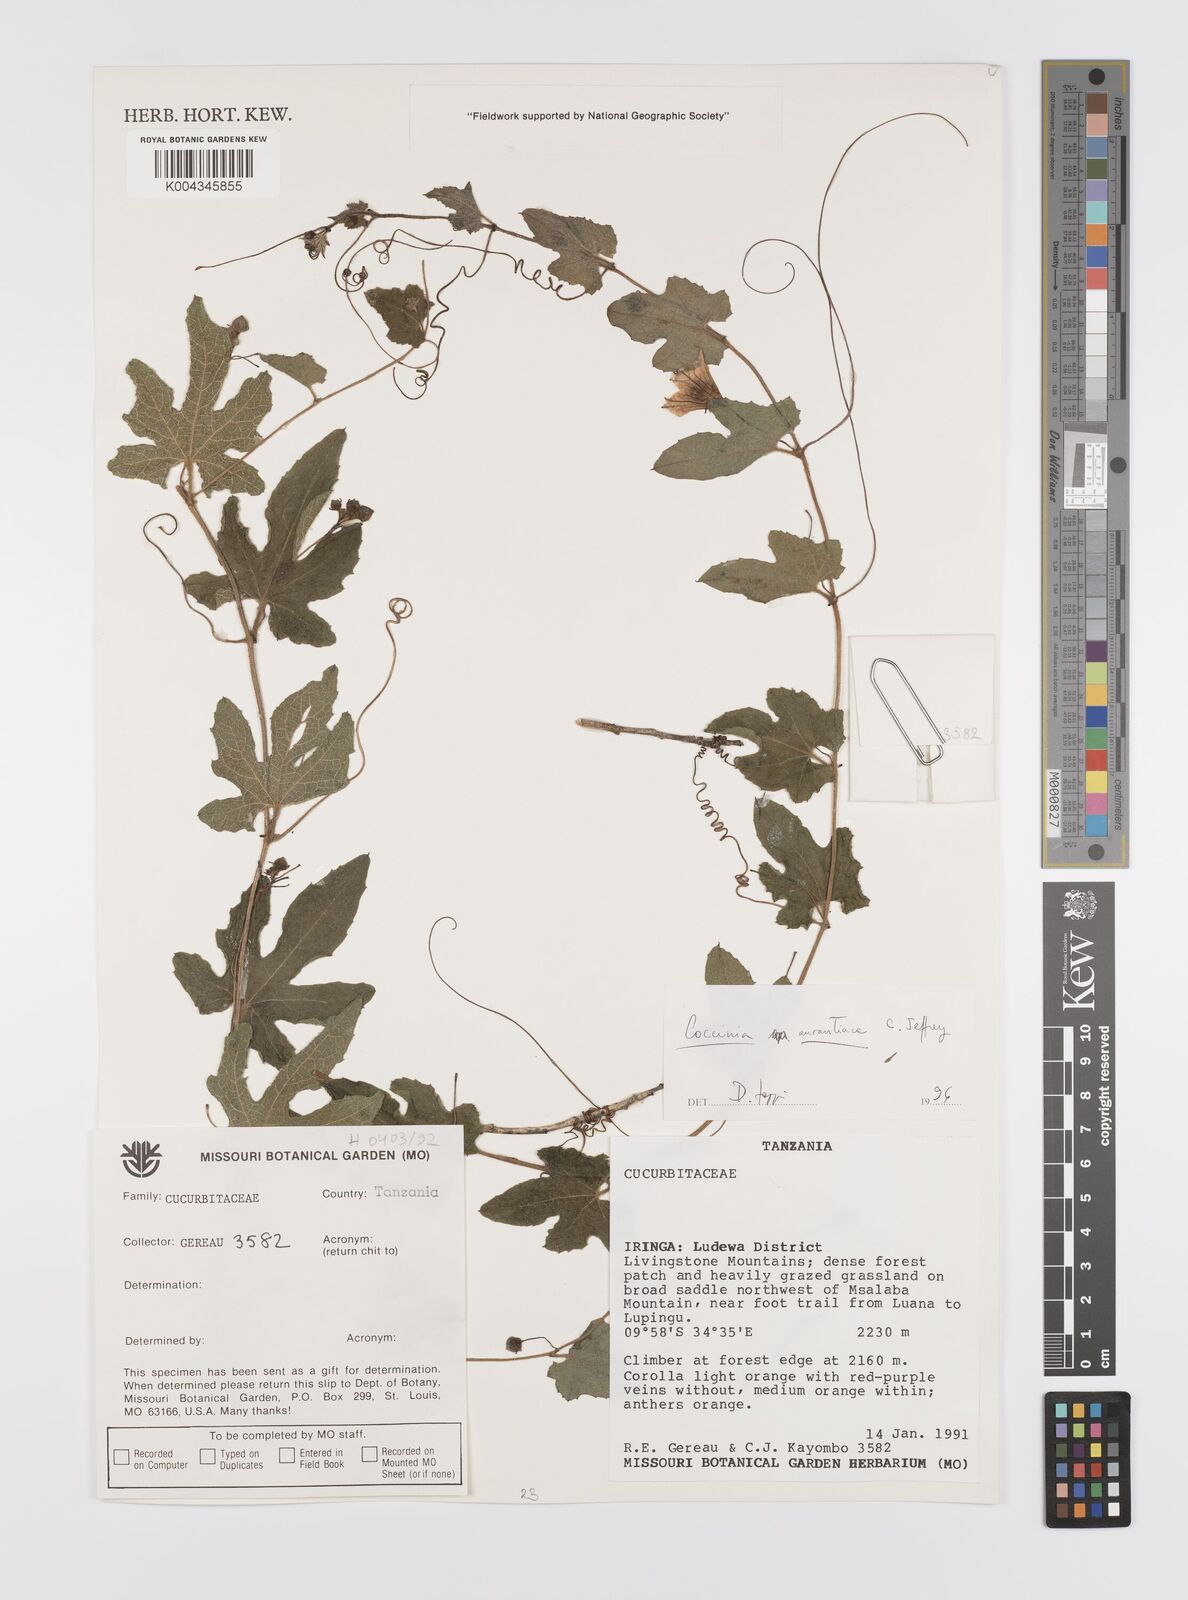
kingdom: Plantae
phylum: Tracheophyta
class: Magnoliopsida
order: Cucurbitales
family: Cucurbitaceae
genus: Coccinia
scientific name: Coccinia adoensis
